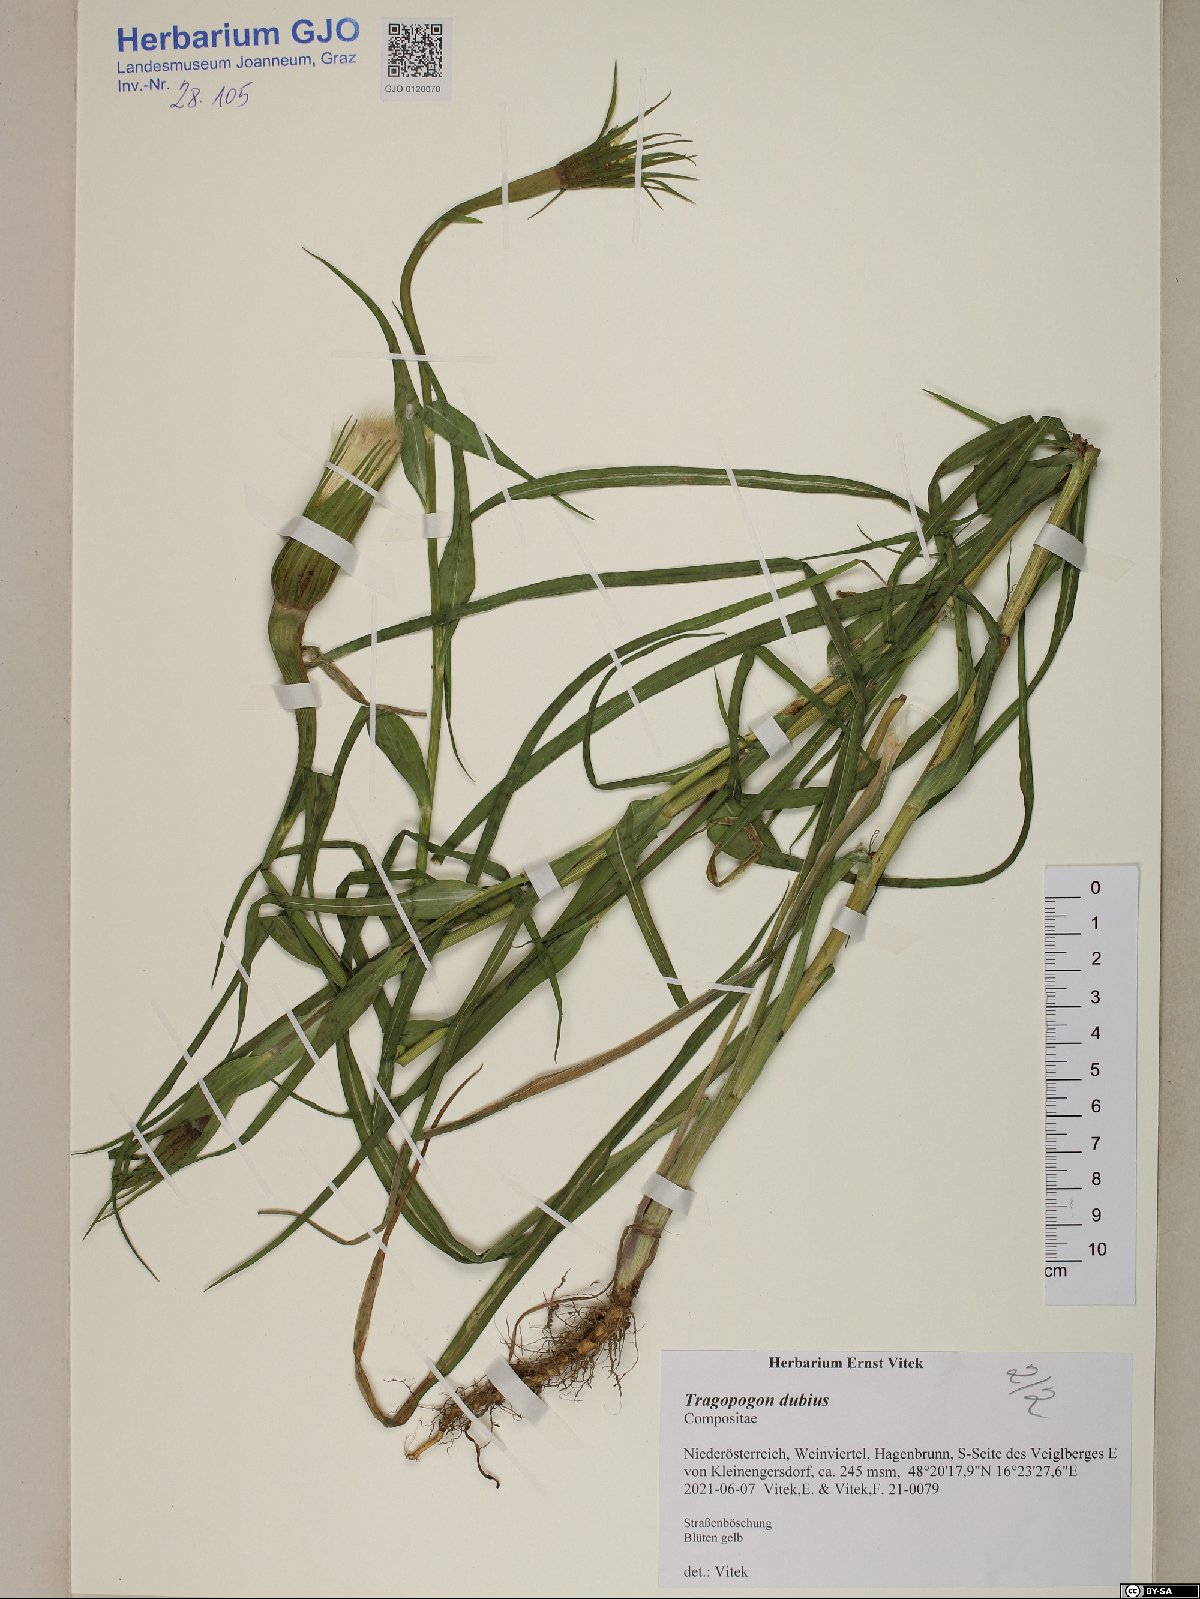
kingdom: Plantae
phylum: Tracheophyta
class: Magnoliopsida
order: Asterales
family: Asteraceae
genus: Tragopogon
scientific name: Tragopogon dubius
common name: Yellow salsify
